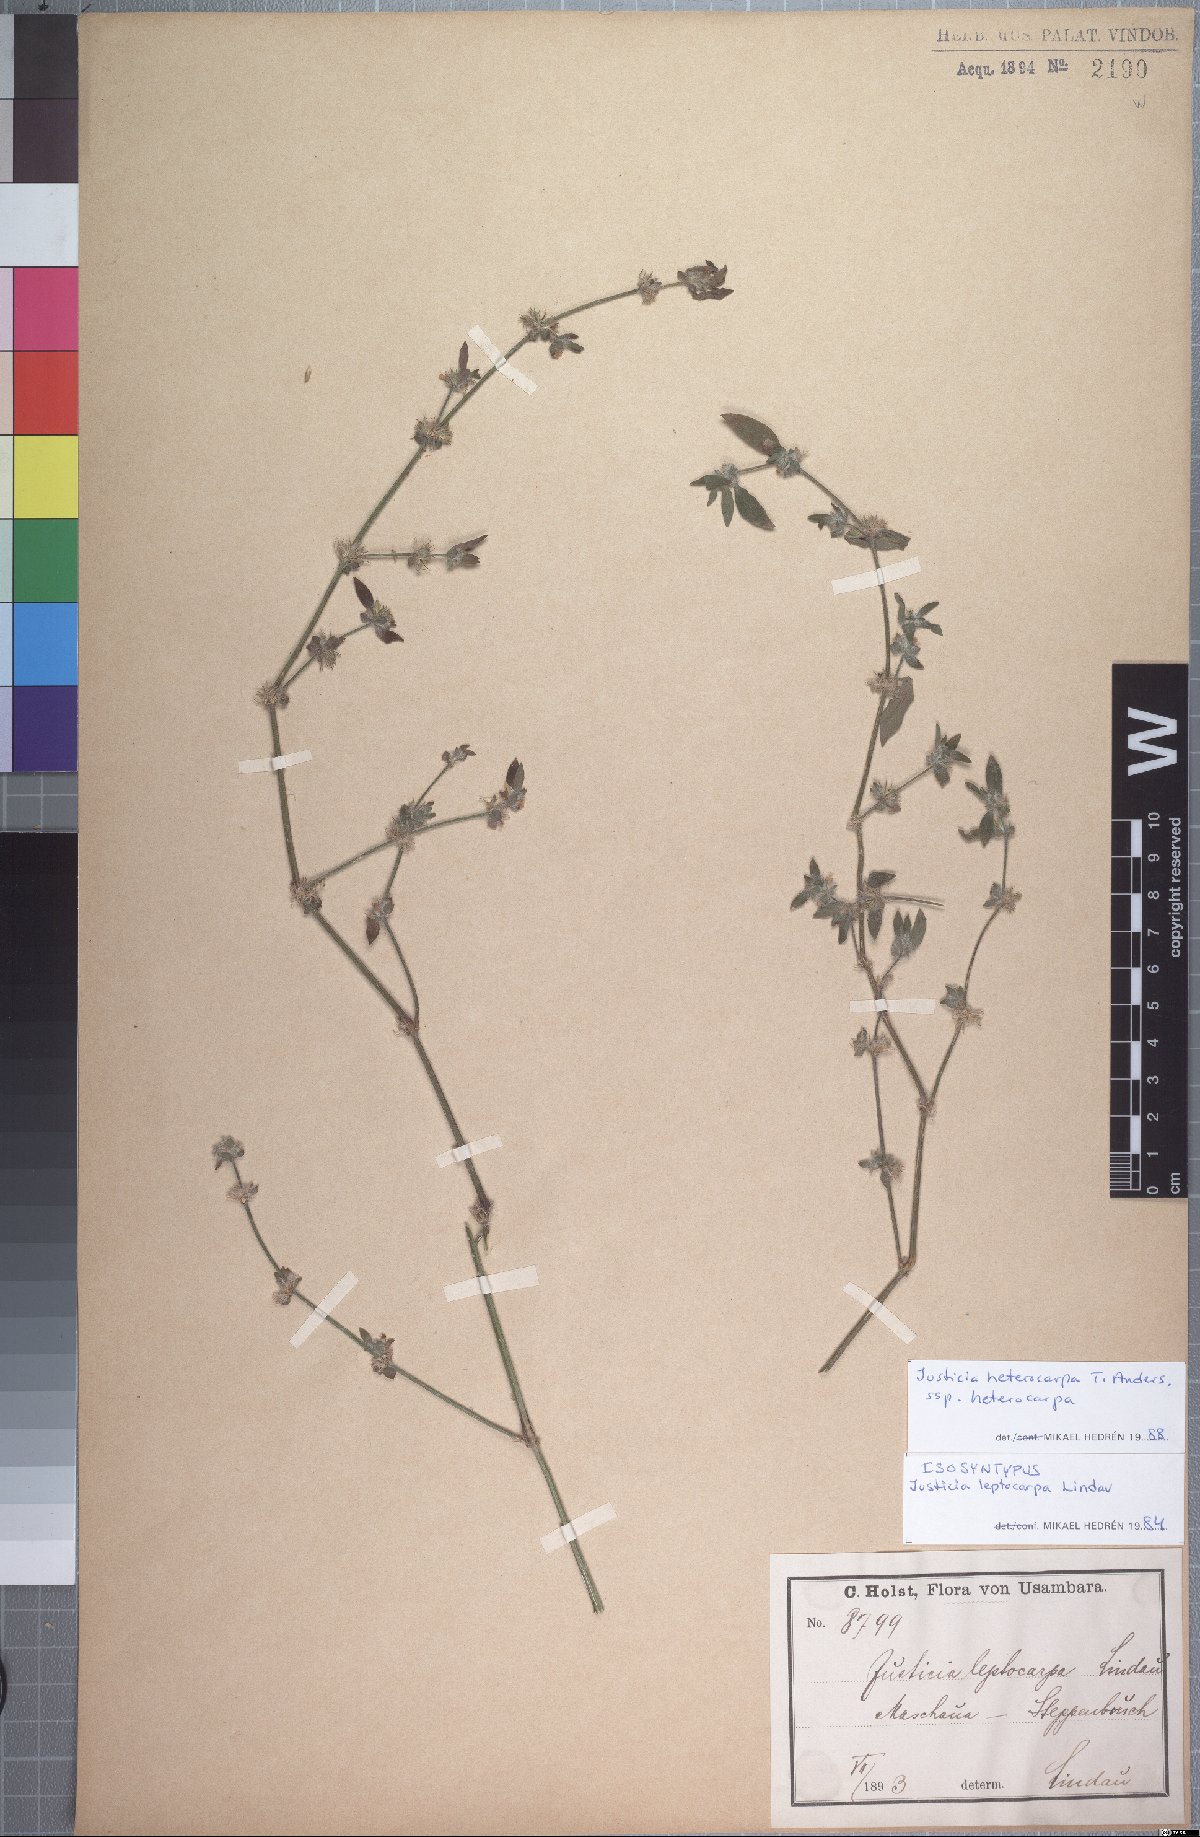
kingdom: Plantae
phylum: Tracheophyta
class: Magnoliopsida
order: Lamiales
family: Acanthaceae
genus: Justicia
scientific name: Justicia heterocarpa
